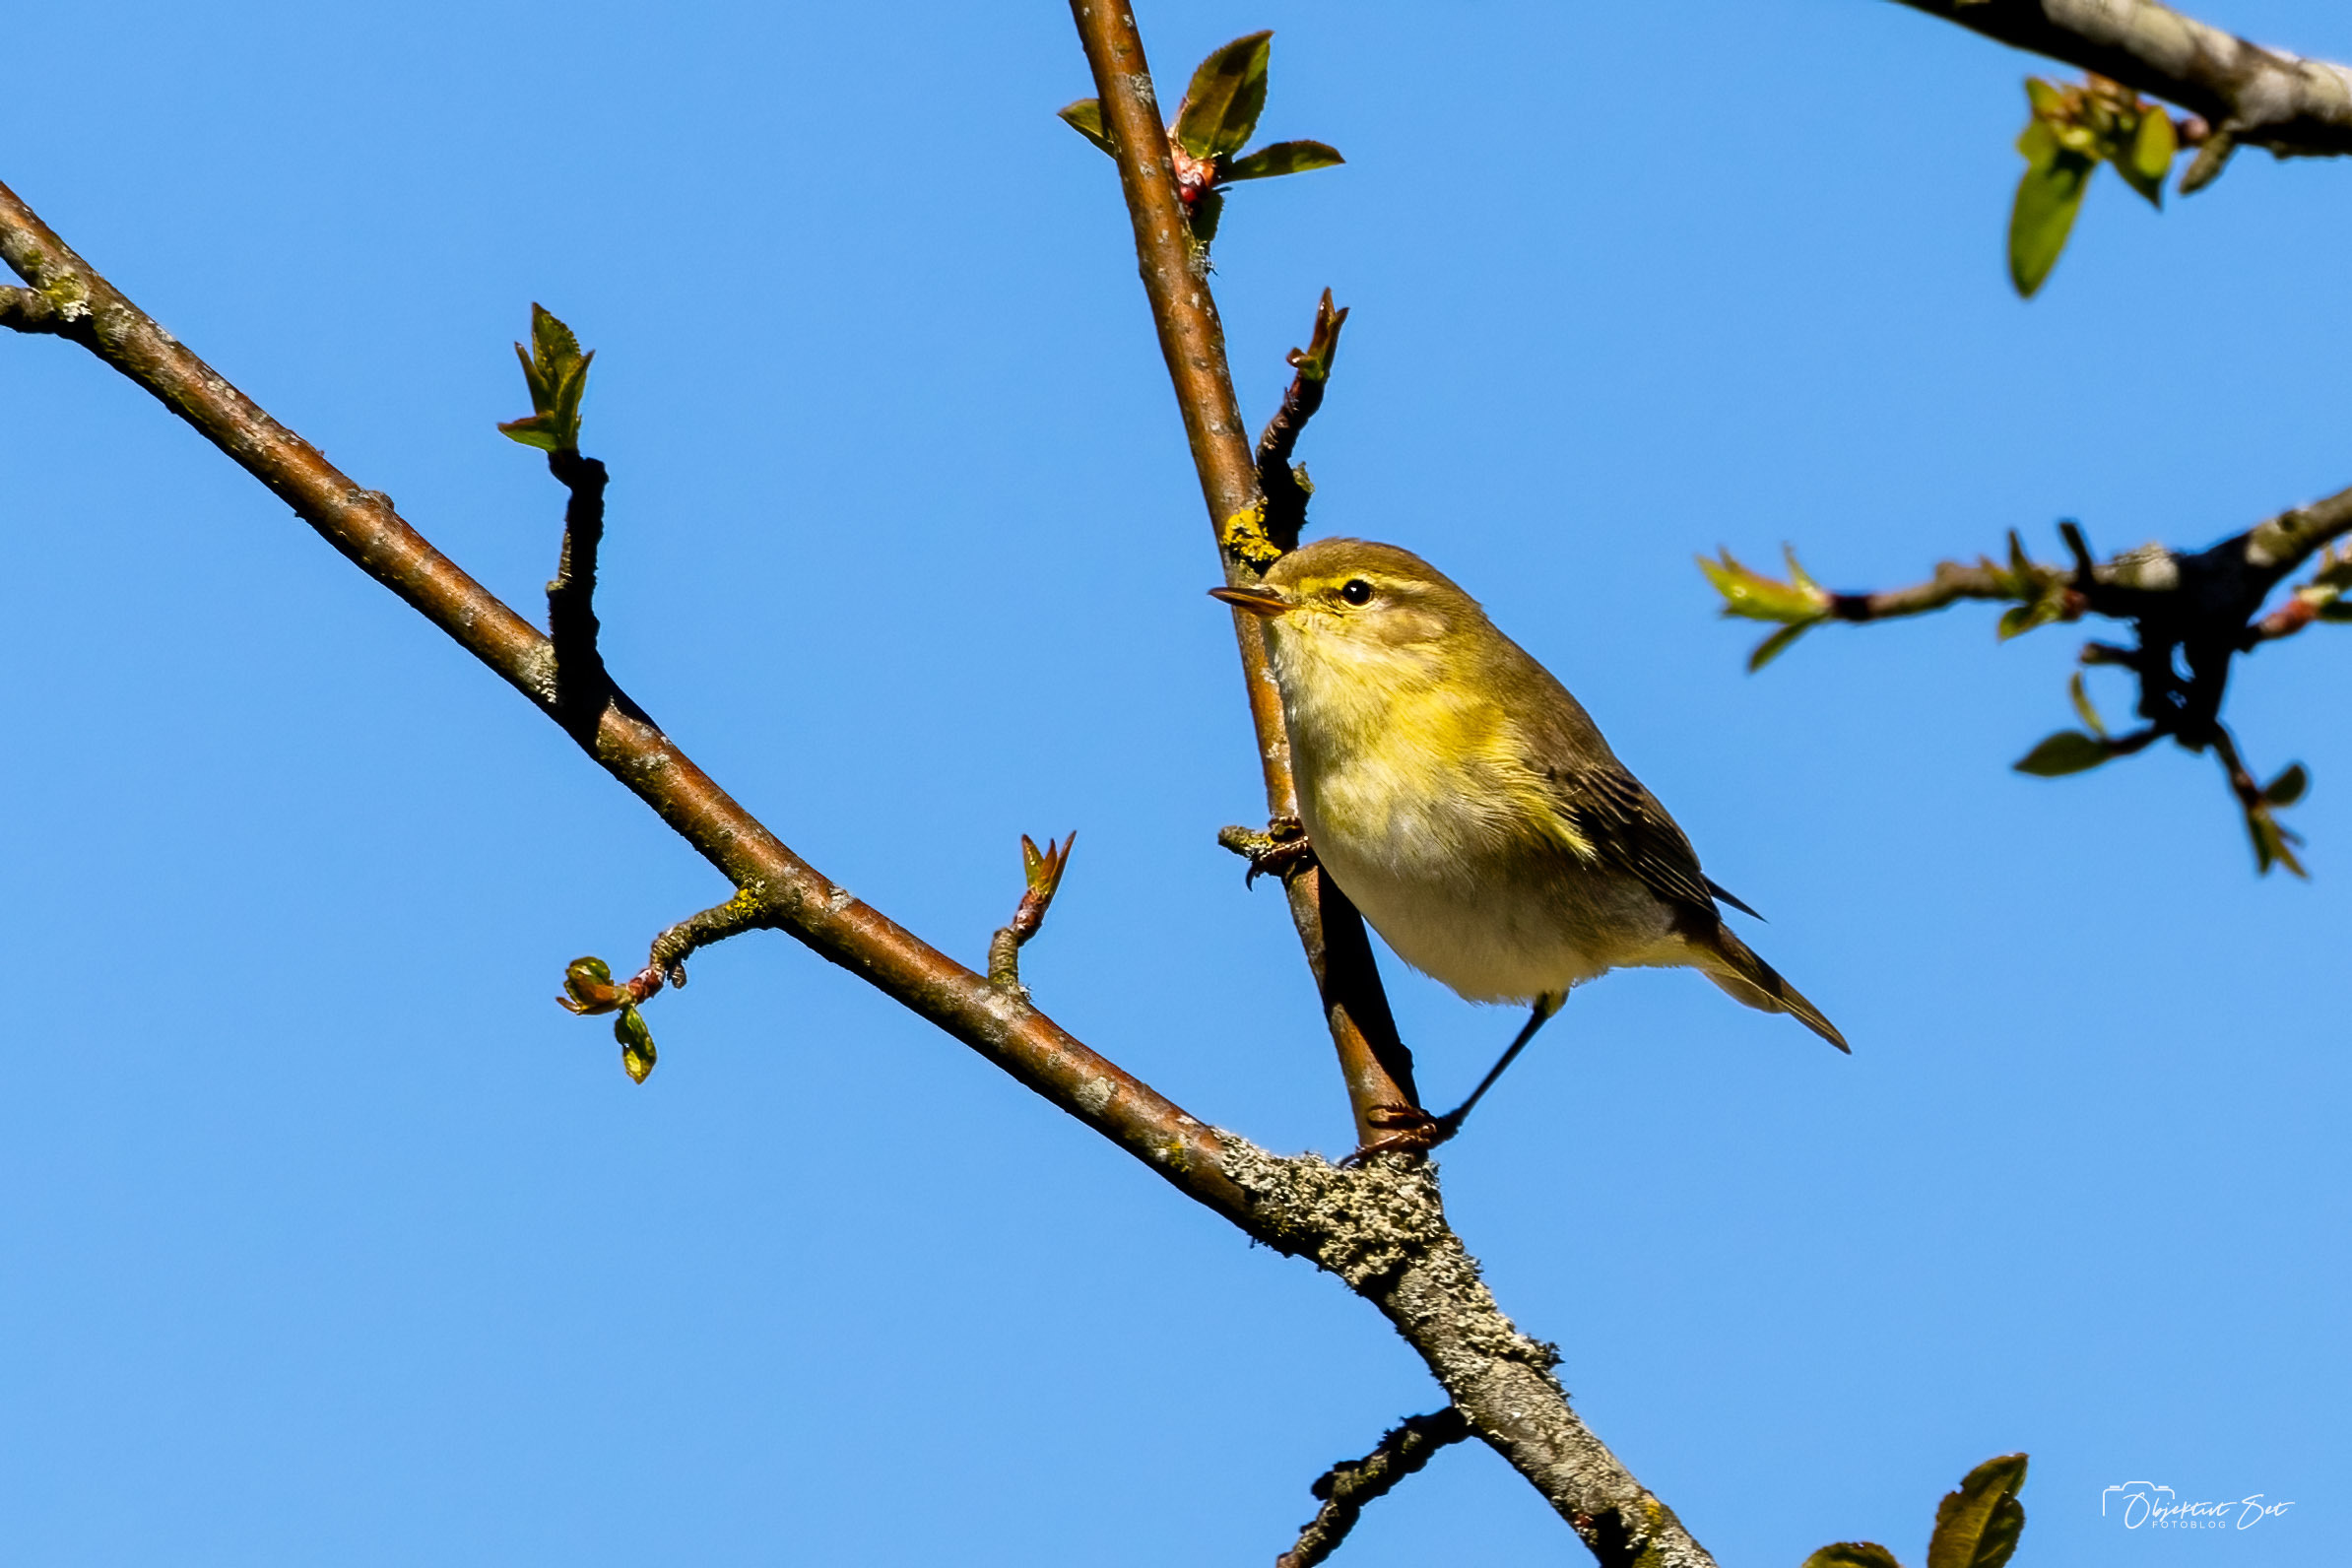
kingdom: Animalia
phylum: Chordata
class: Aves
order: Passeriformes
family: Phylloscopidae
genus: Phylloscopus
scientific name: Phylloscopus trochilus
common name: Løvsanger
